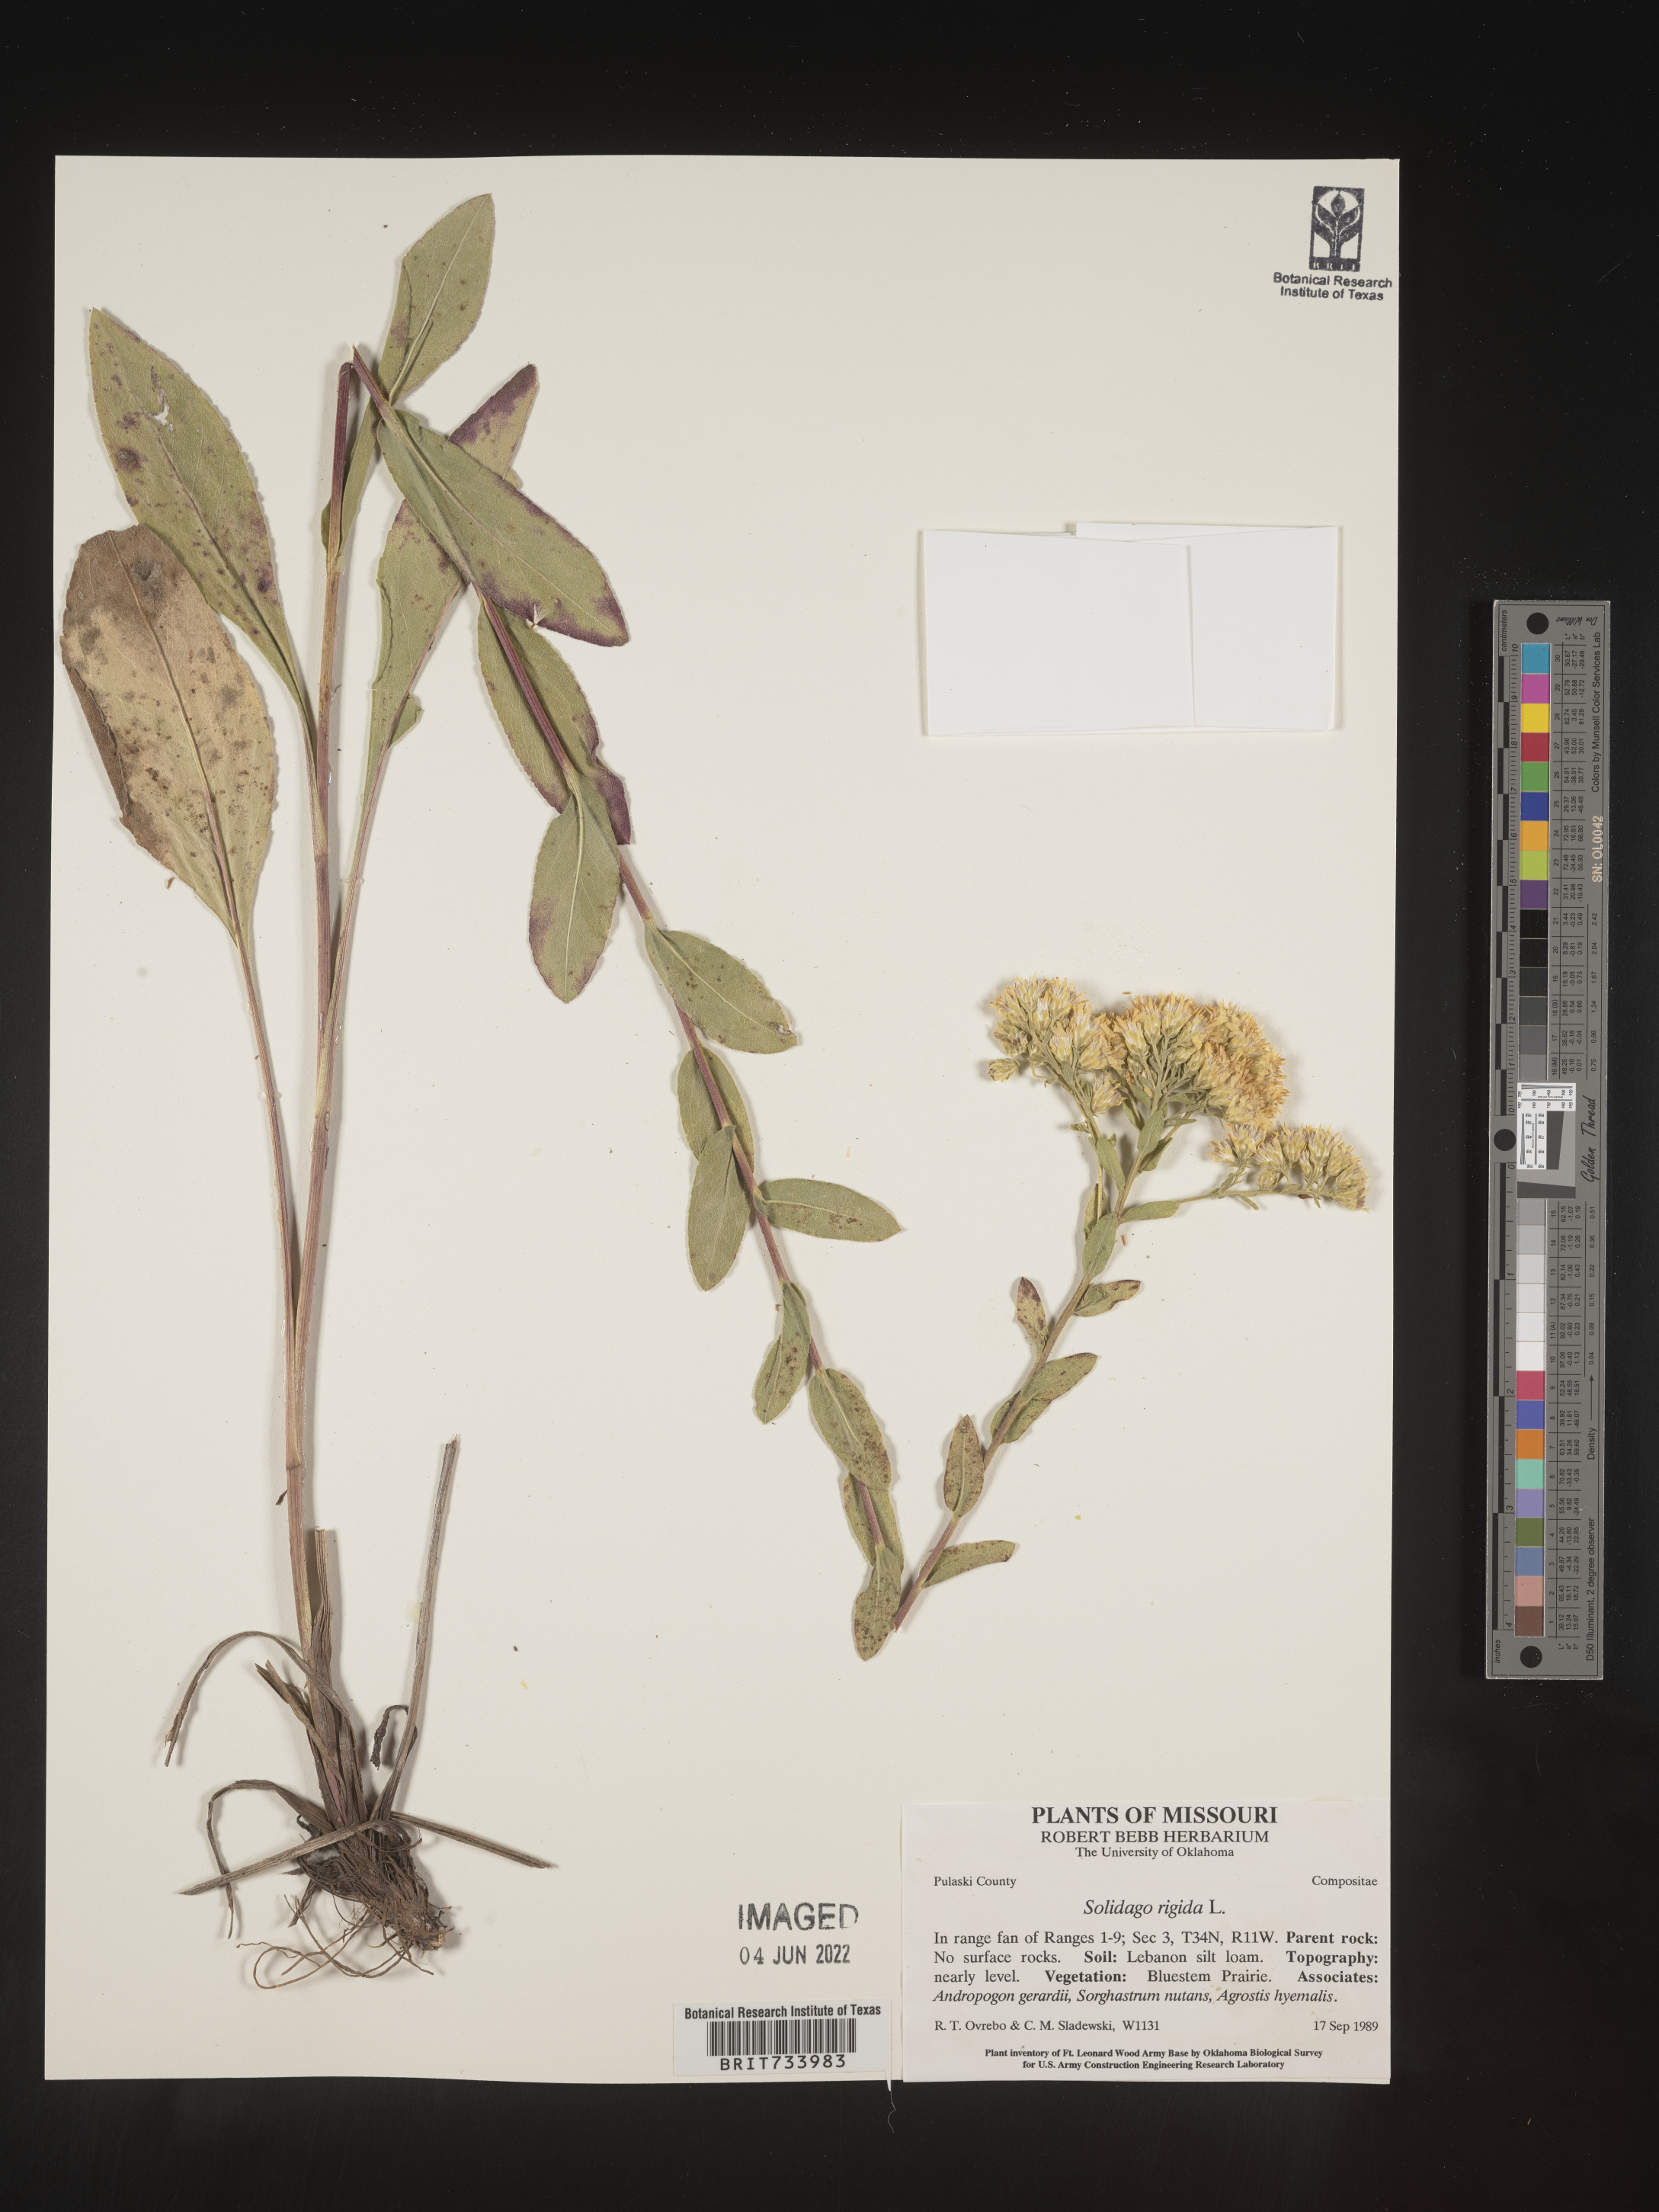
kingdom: Plantae
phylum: Tracheophyta
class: Magnoliopsida
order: Asterales
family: Asteraceae
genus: Solidago
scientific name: Solidago rigida
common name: Rigid goldenrod
